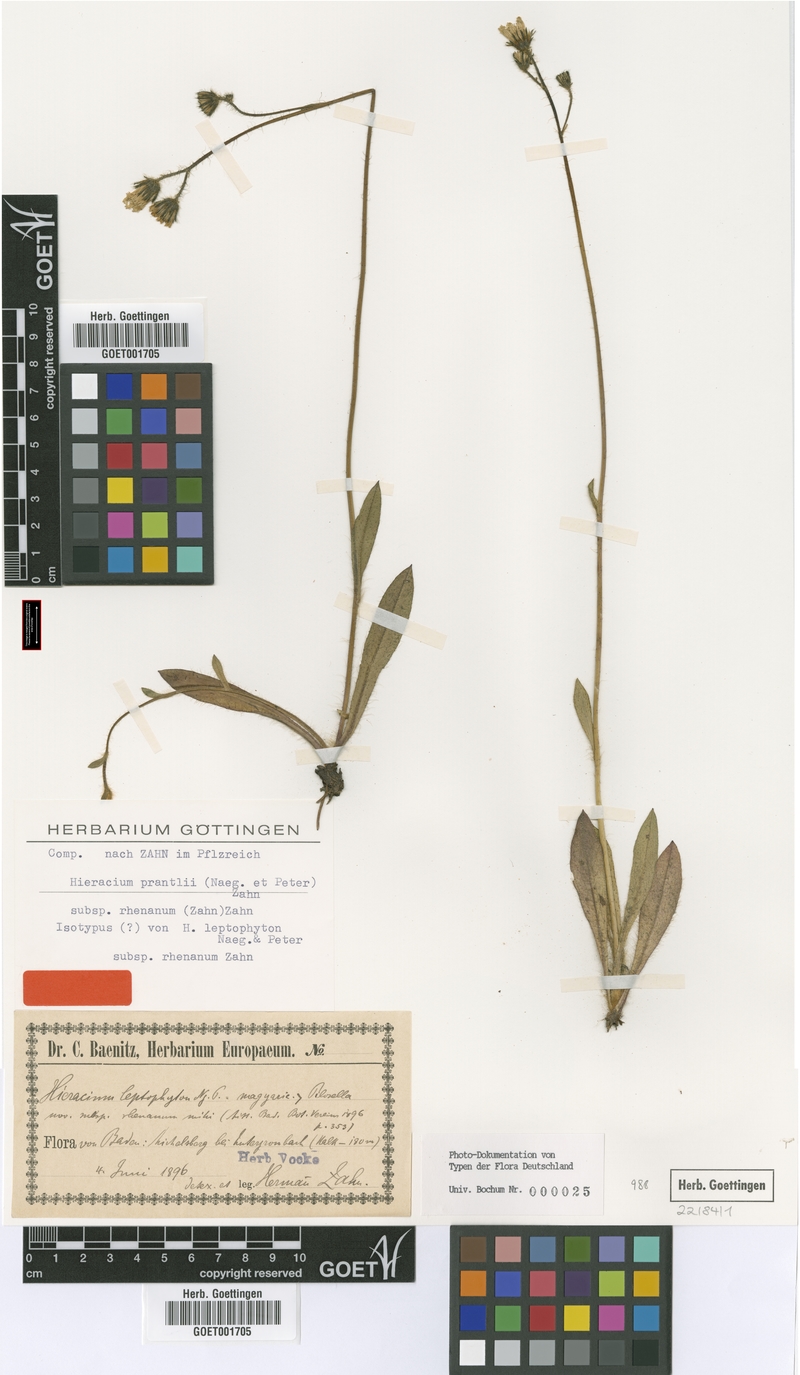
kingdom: Plantae
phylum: Tracheophyta
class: Magnoliopsida
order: Asterales
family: Asteraceae
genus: Pilosella
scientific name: Pilosella fallacina
